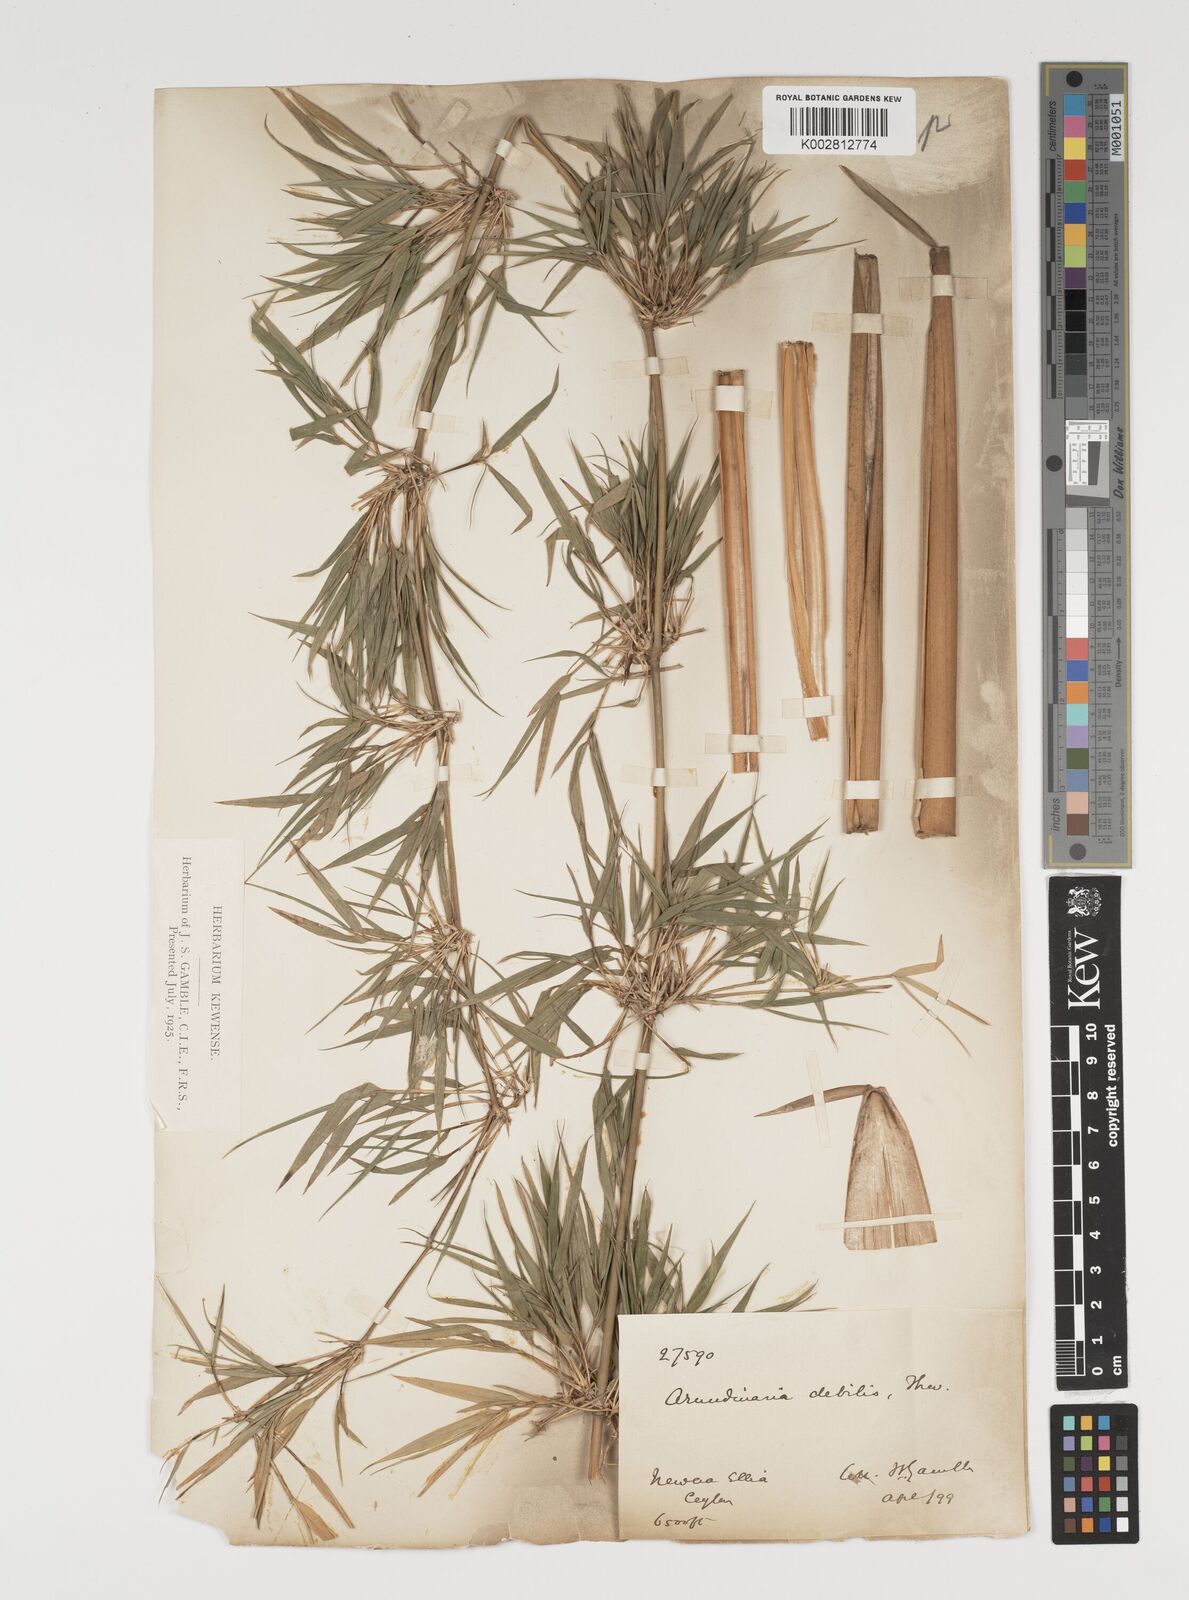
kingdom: Plantae
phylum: Tracheophyta
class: Liliopsida
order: Poales
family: Poaceae
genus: Kuruna
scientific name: Kuruna debilis
